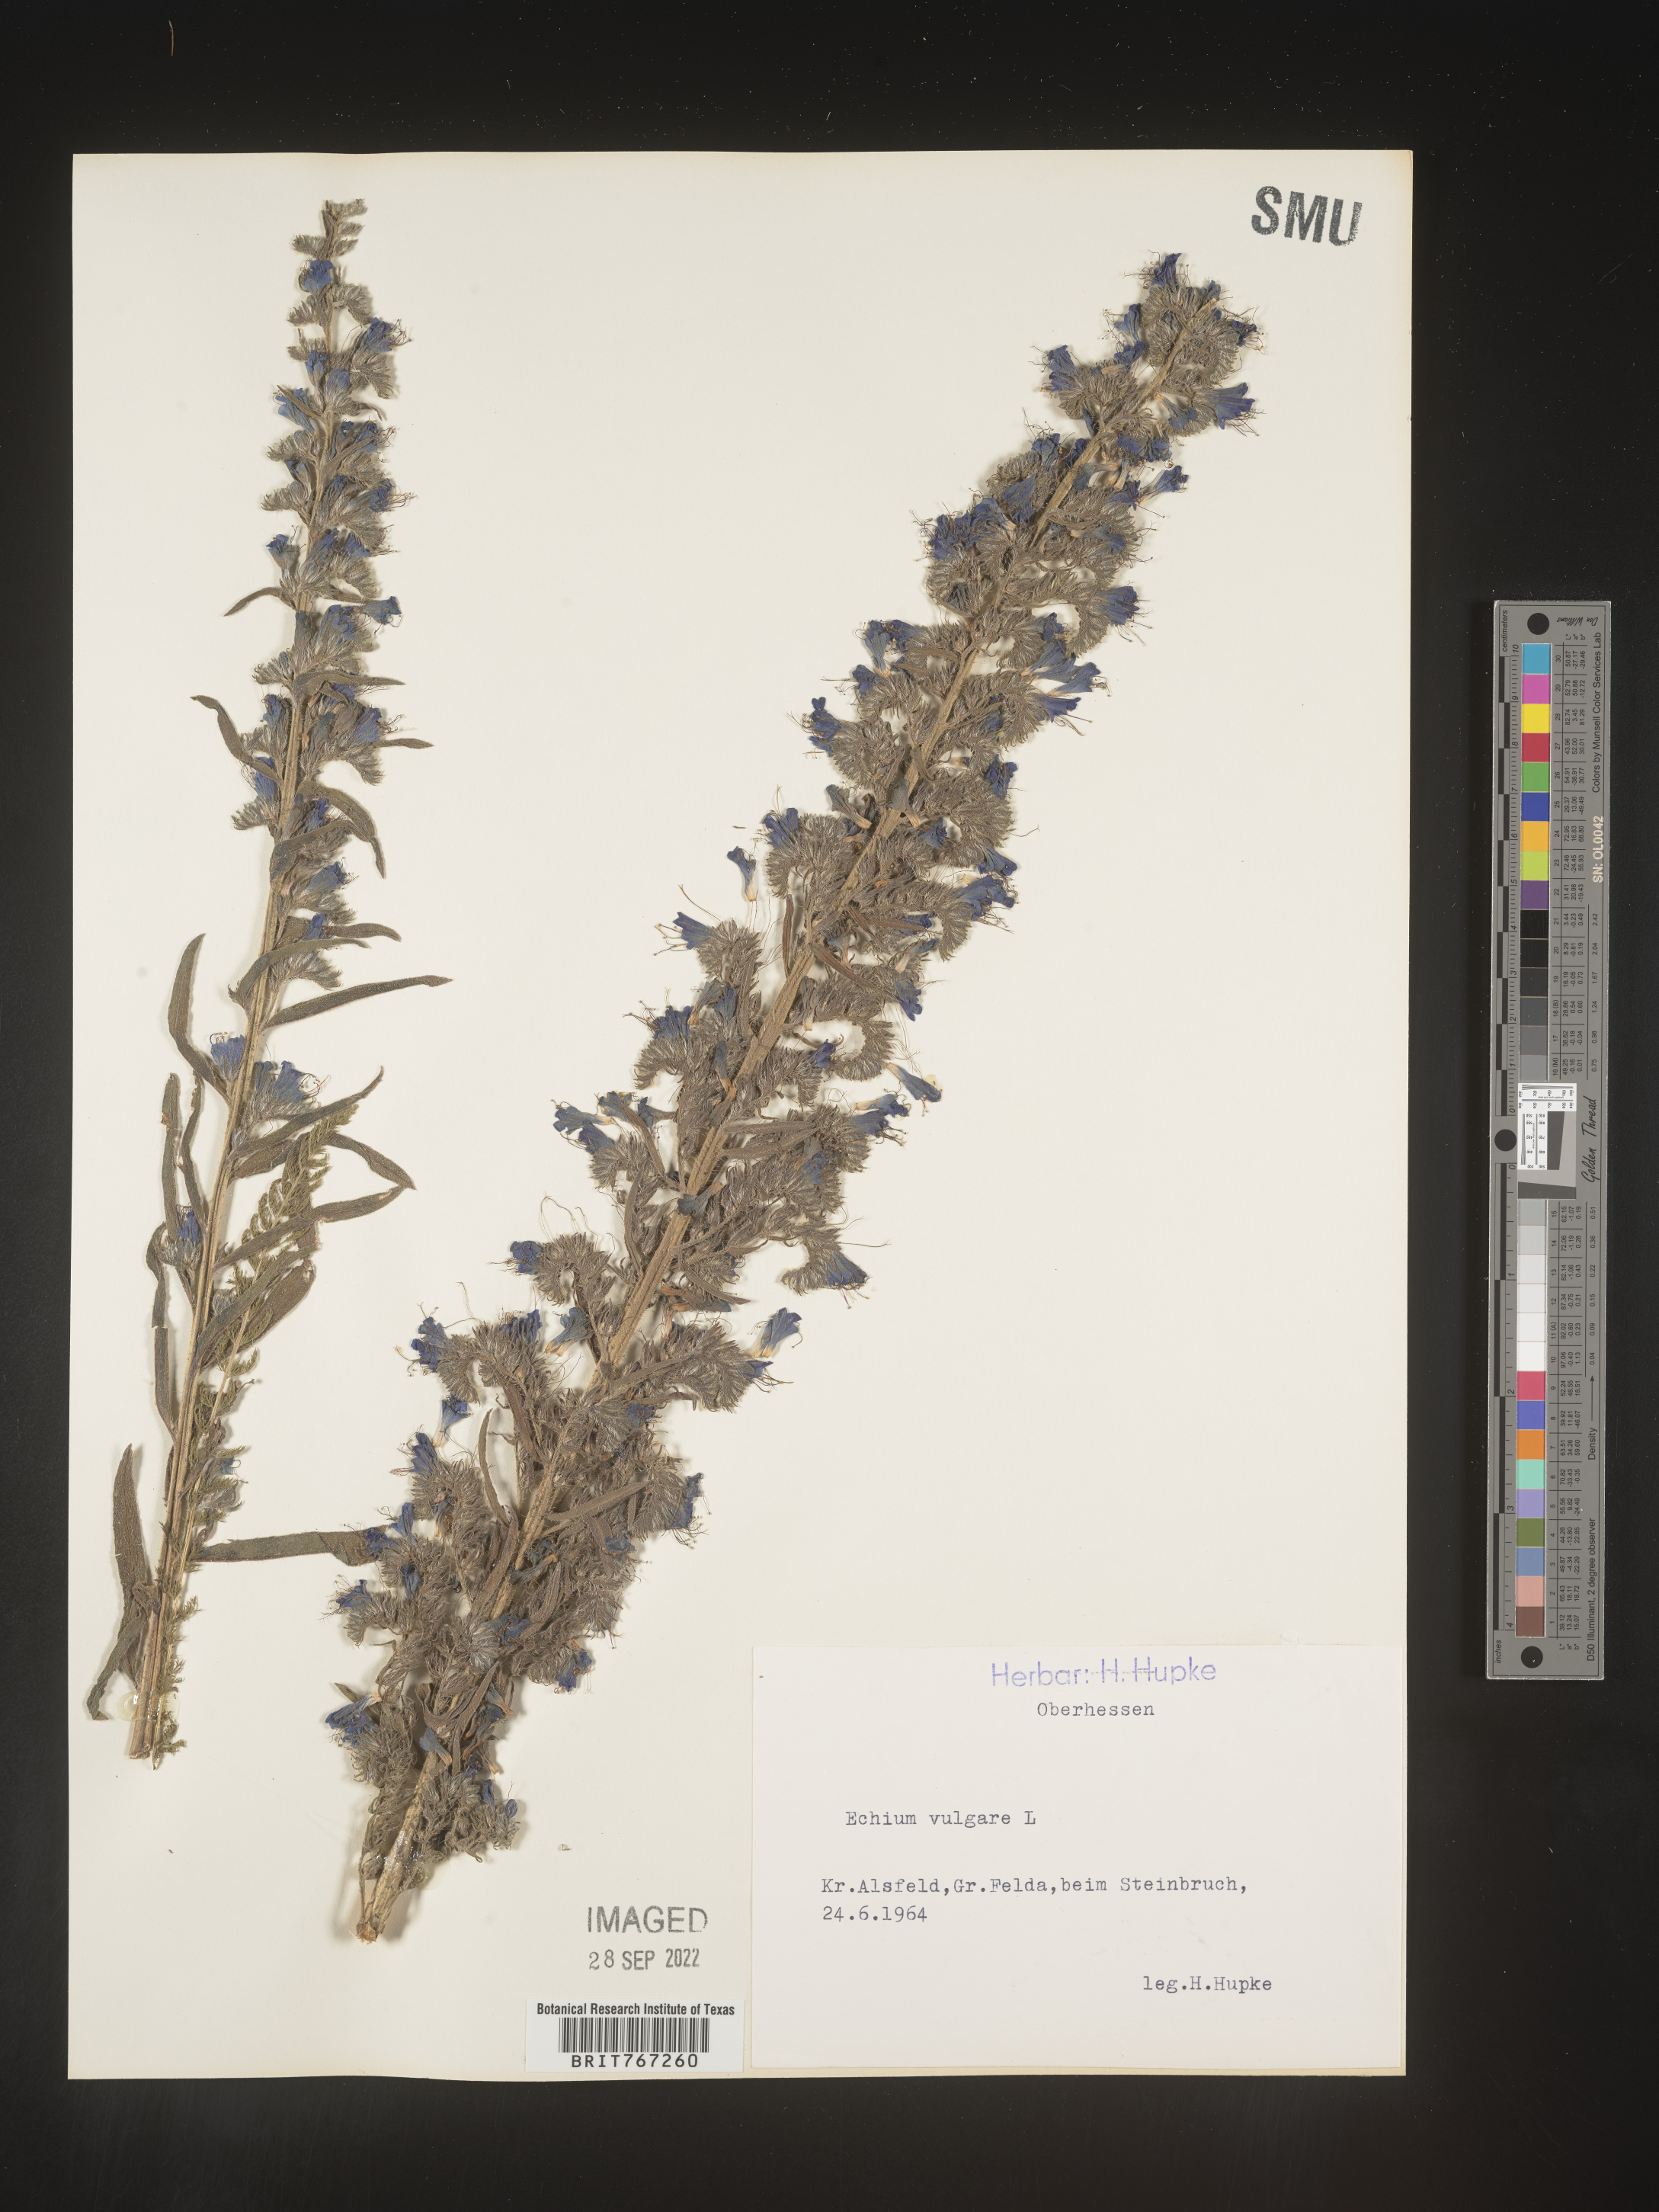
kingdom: Plantae
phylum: Tracheophyta
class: Magnoliopsida
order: Boraginales
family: Boraginaceae
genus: Echium
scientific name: Echium
